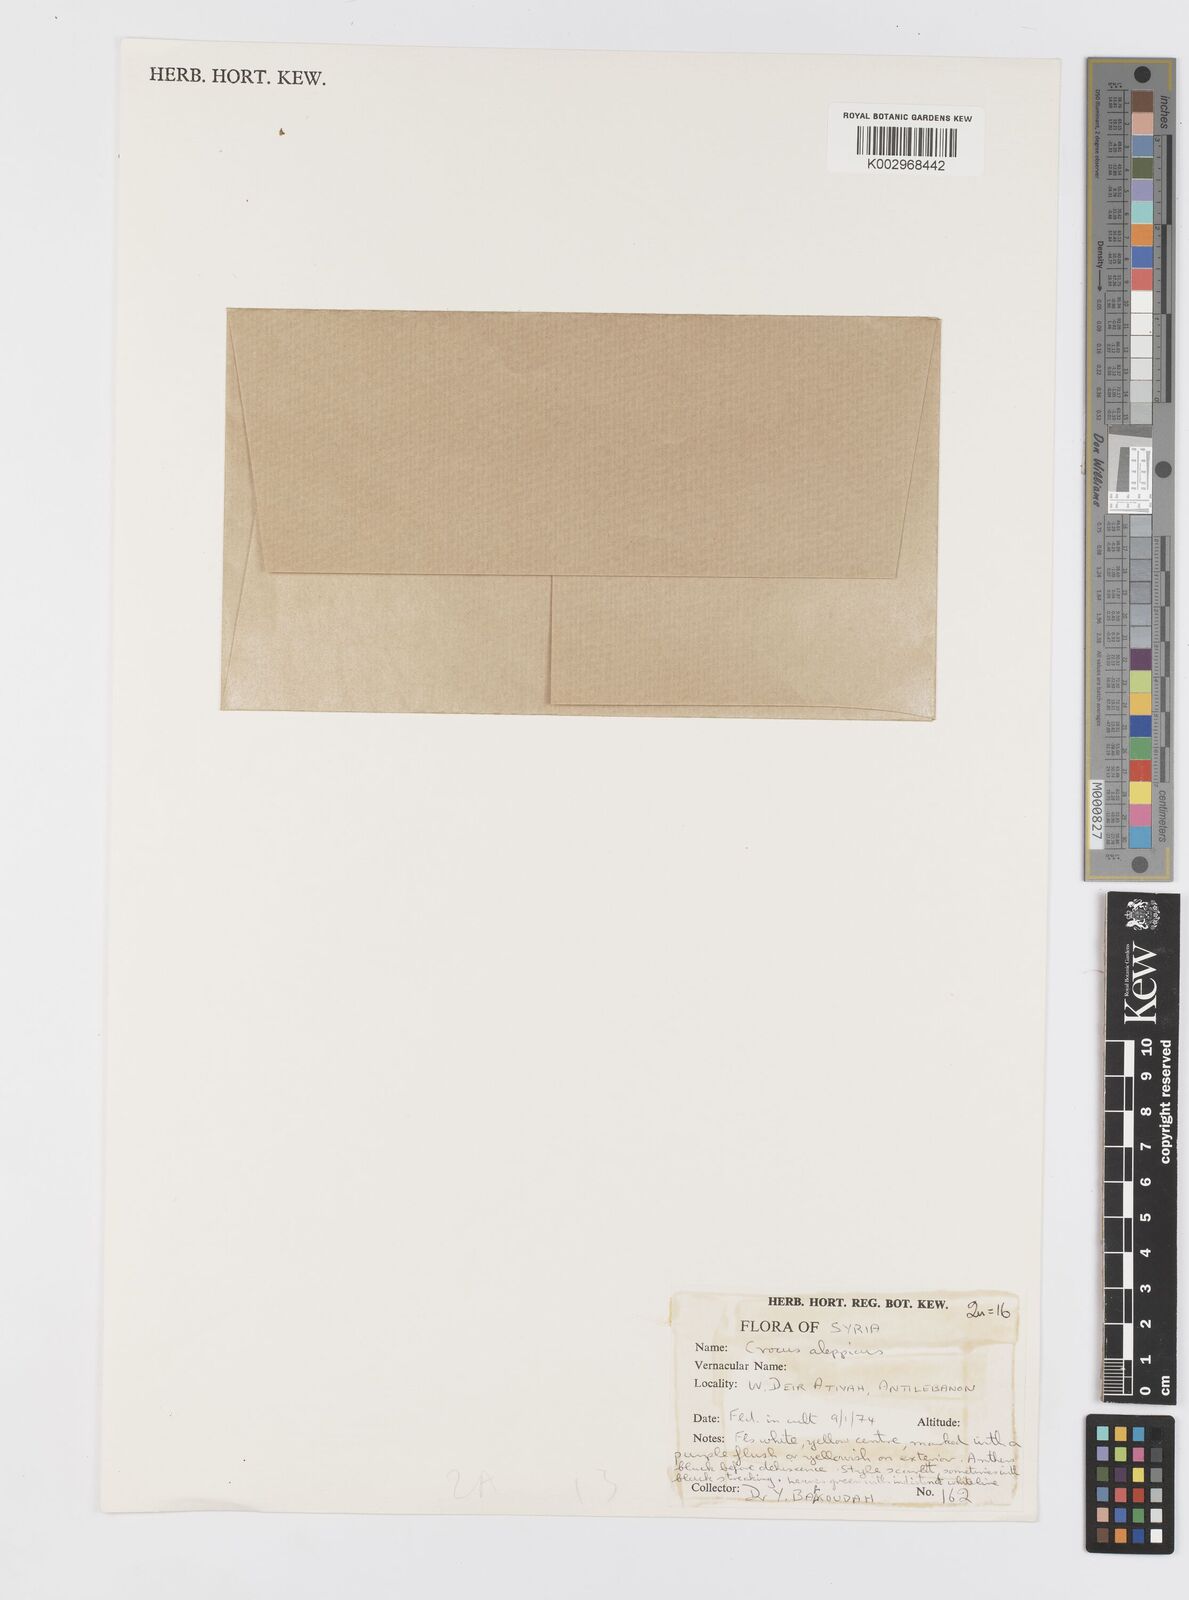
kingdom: Plantae
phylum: Tracheophyta
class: Liliopsida
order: Asparagales
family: Iridaceae
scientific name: Iridaceae
